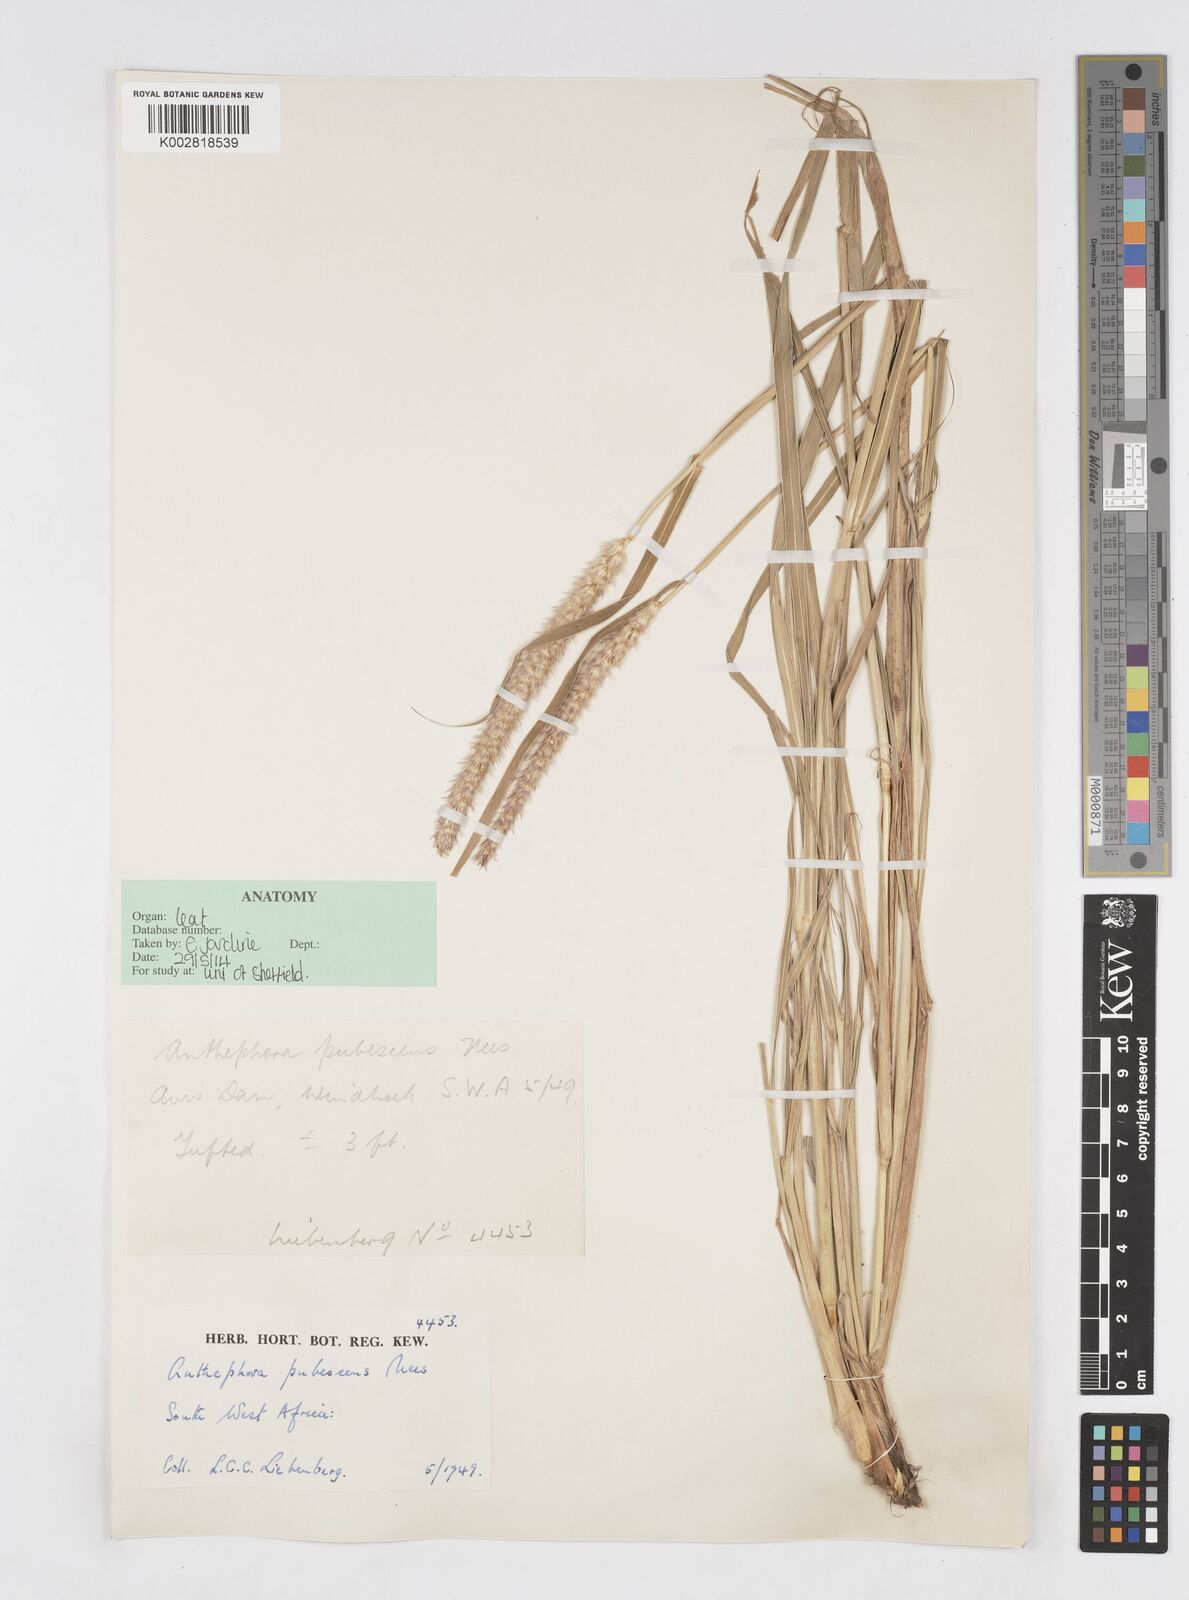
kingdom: Plantae
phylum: Tracheophyta
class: Liliopsida
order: Poales
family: Poaceae
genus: Anthephora
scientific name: Anthephora pubescens
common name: Wool grass
